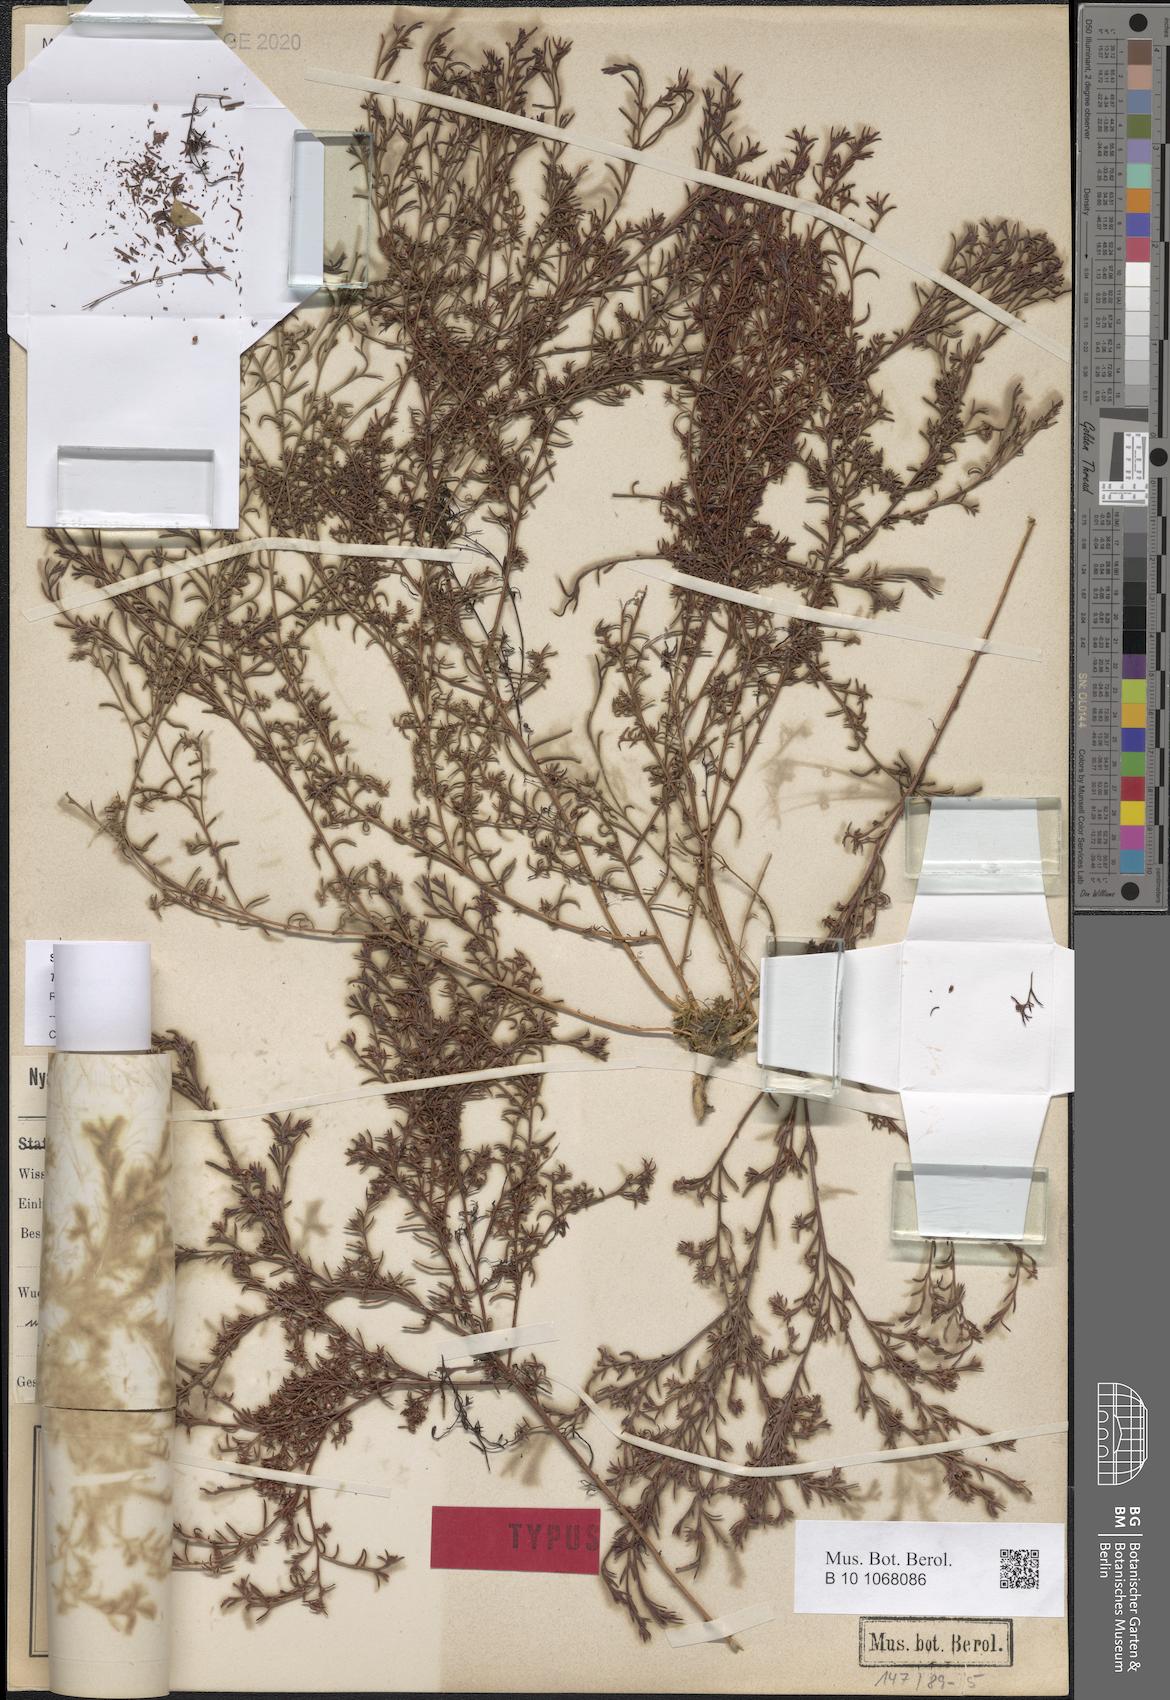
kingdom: Plantae
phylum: Tracheophyta
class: Magnoliopsida
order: Santalales
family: Thesiaceae
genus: Thesium
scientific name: Thesium kilimandscharicum
